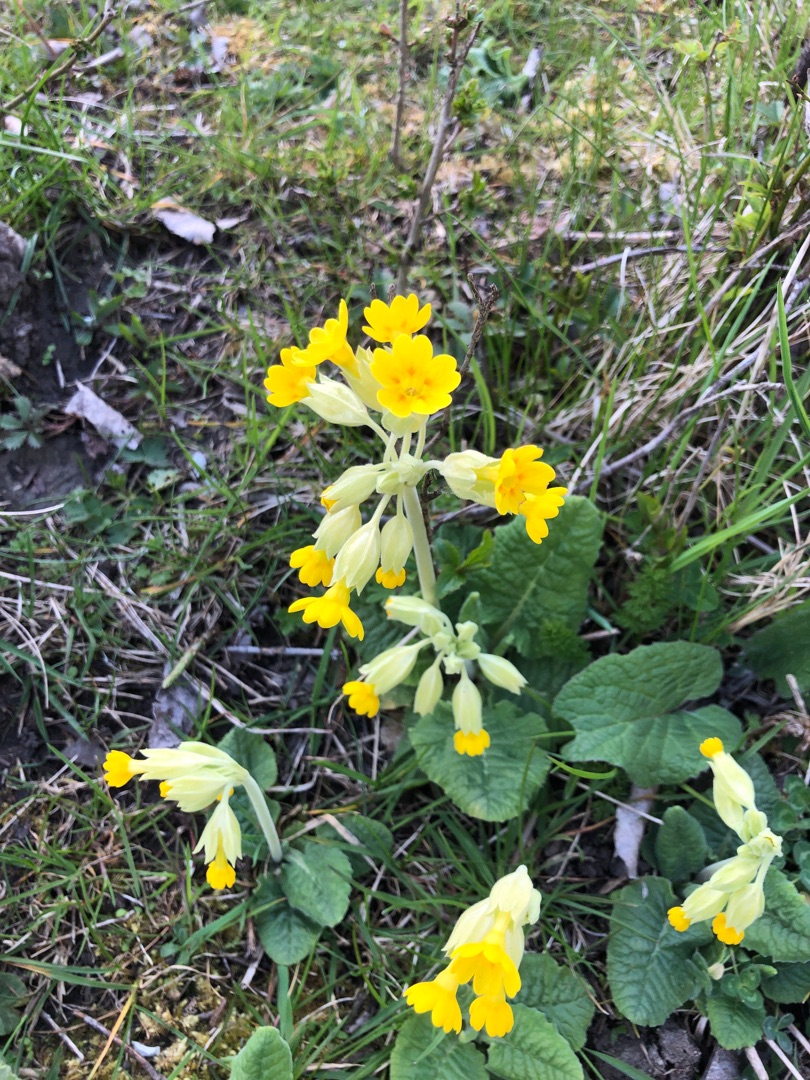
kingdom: Plantae
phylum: Tracheophyta
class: Magnoliopsida
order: Ericales
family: Primulaceae
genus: Primula
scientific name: Primula veris
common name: Hulkravet kodriver
